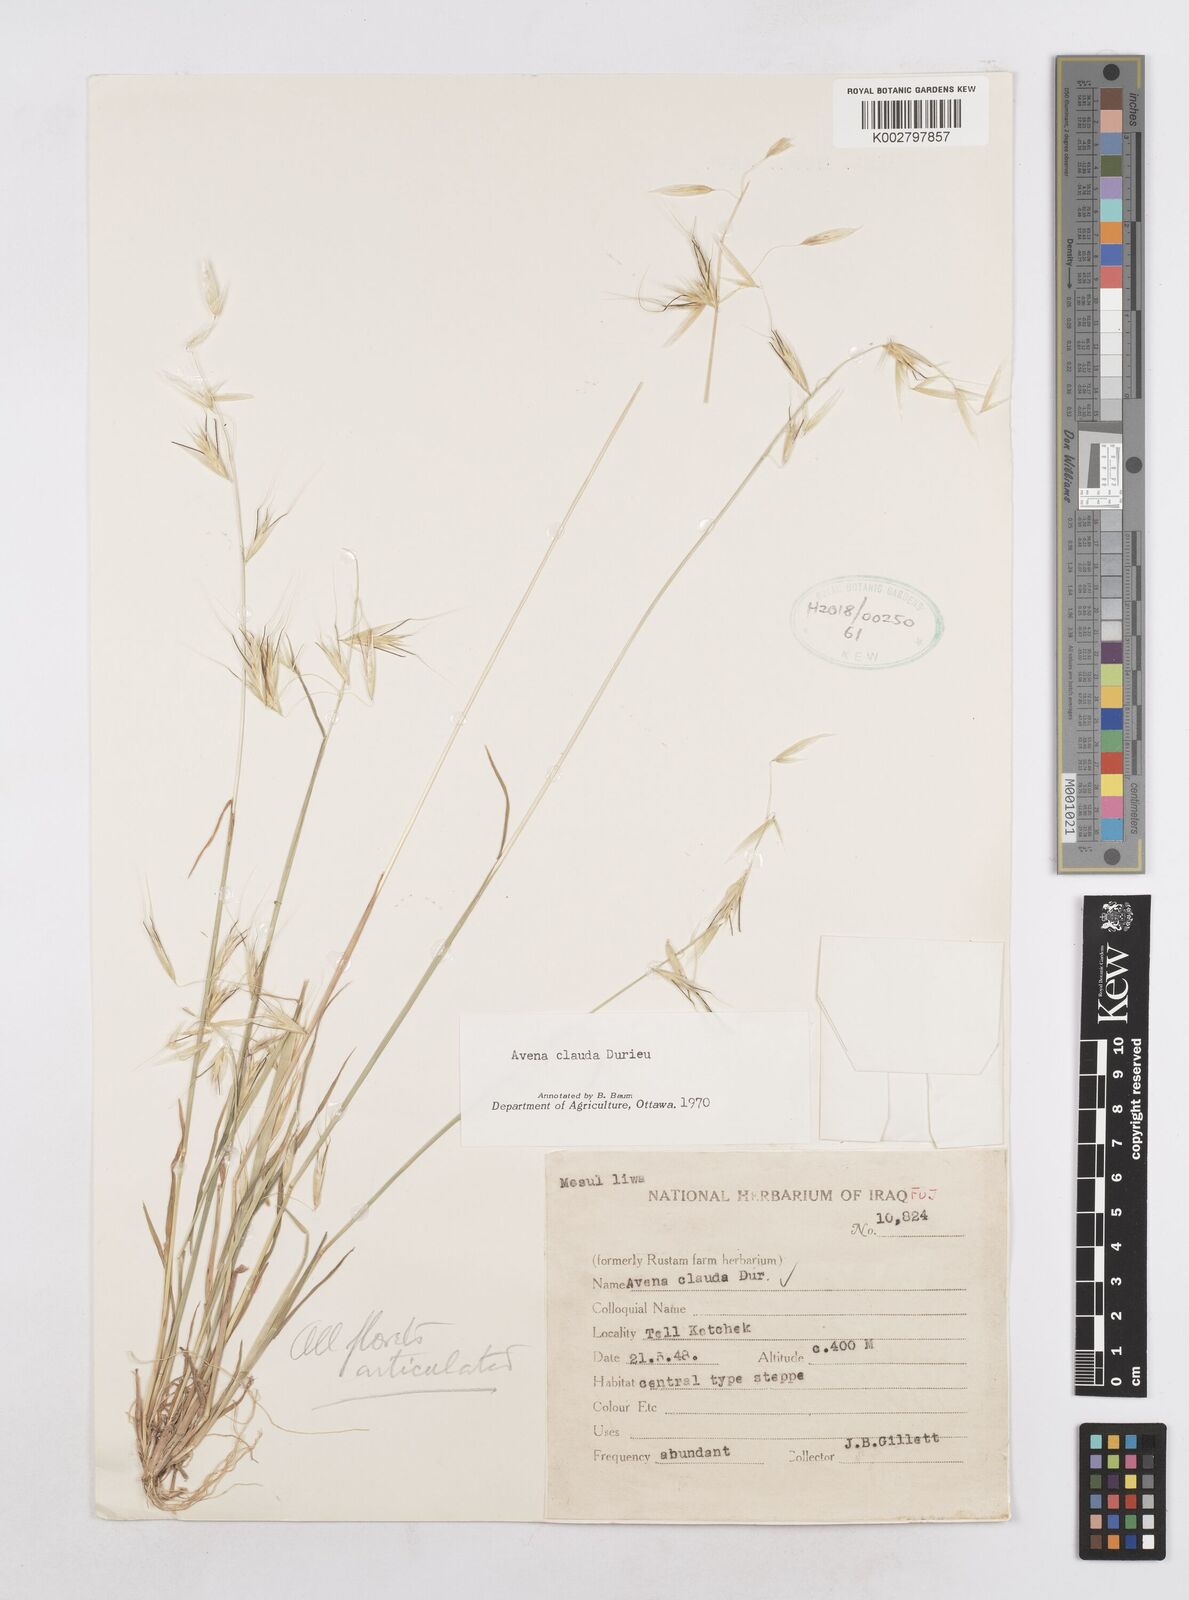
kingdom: Plantae
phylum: Tracheophyta
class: Liliopsida
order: Poales
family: Poaceae
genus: Avena
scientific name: Avena clauda
